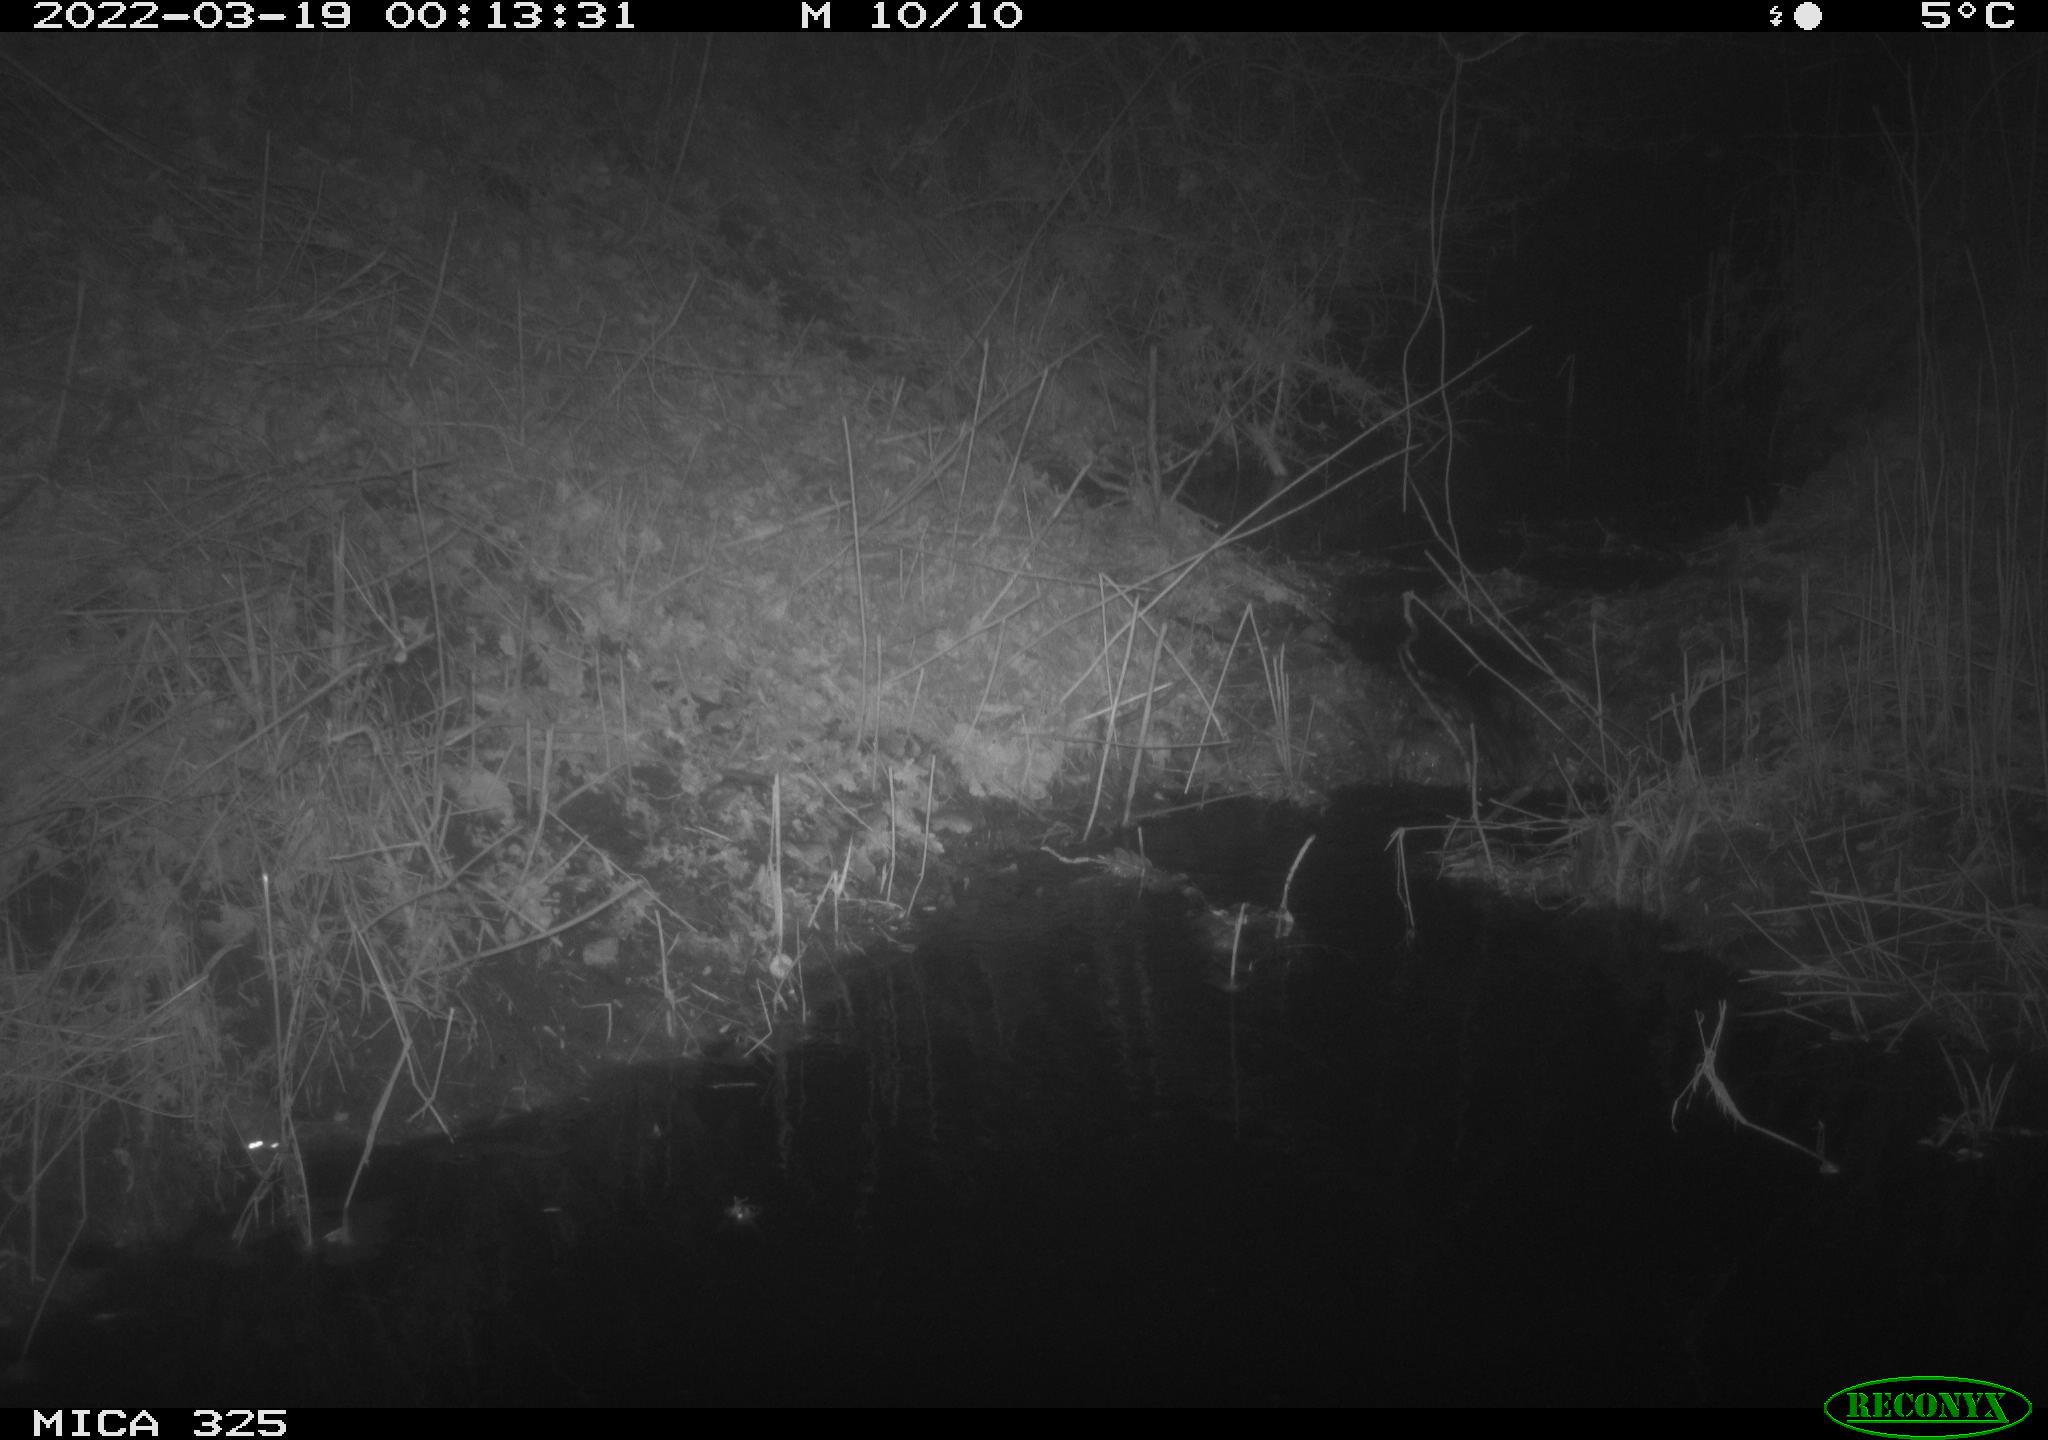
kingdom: Animalia
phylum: Chordata
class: Mammalia
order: Rodentia
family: Muridae
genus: Rattus
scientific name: Rattus norvegicus
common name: Brown rat
